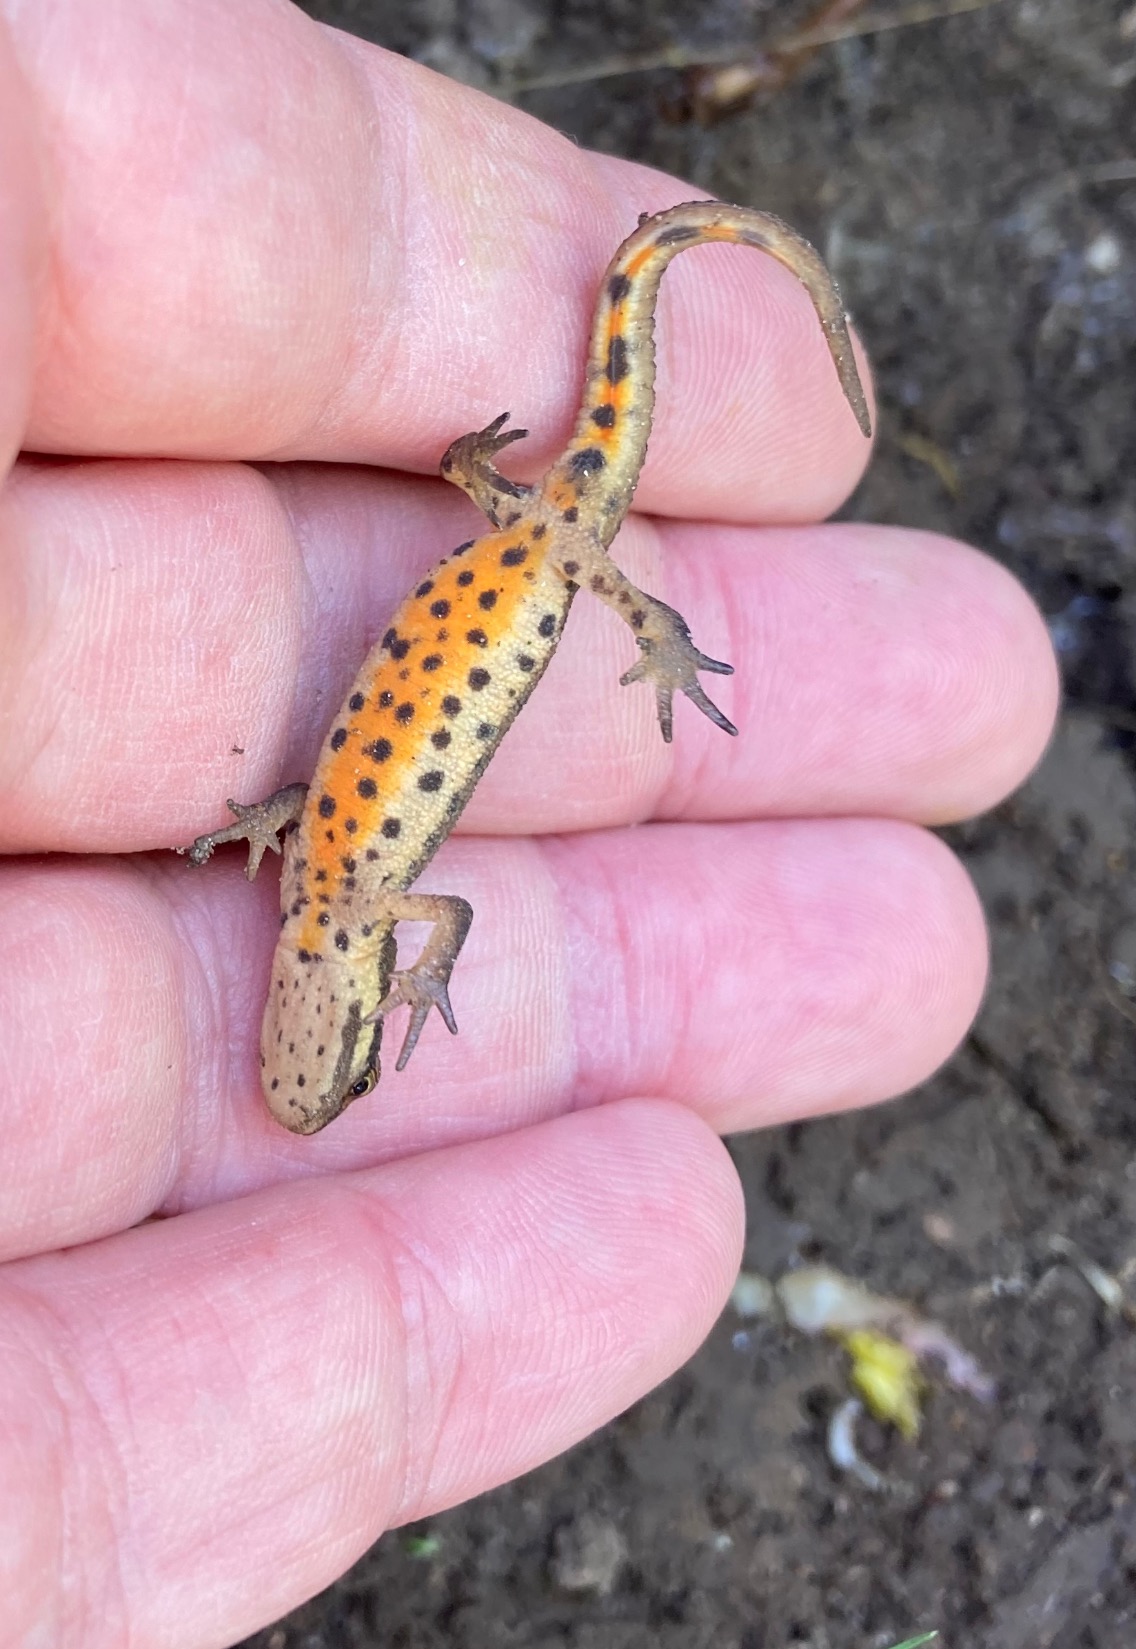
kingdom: Animalia
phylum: Chordata
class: Amphibia
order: Caudata
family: Salamandridae
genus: Lissotriton
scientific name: Lissotriton vulgaris
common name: Lille vandsalamander
